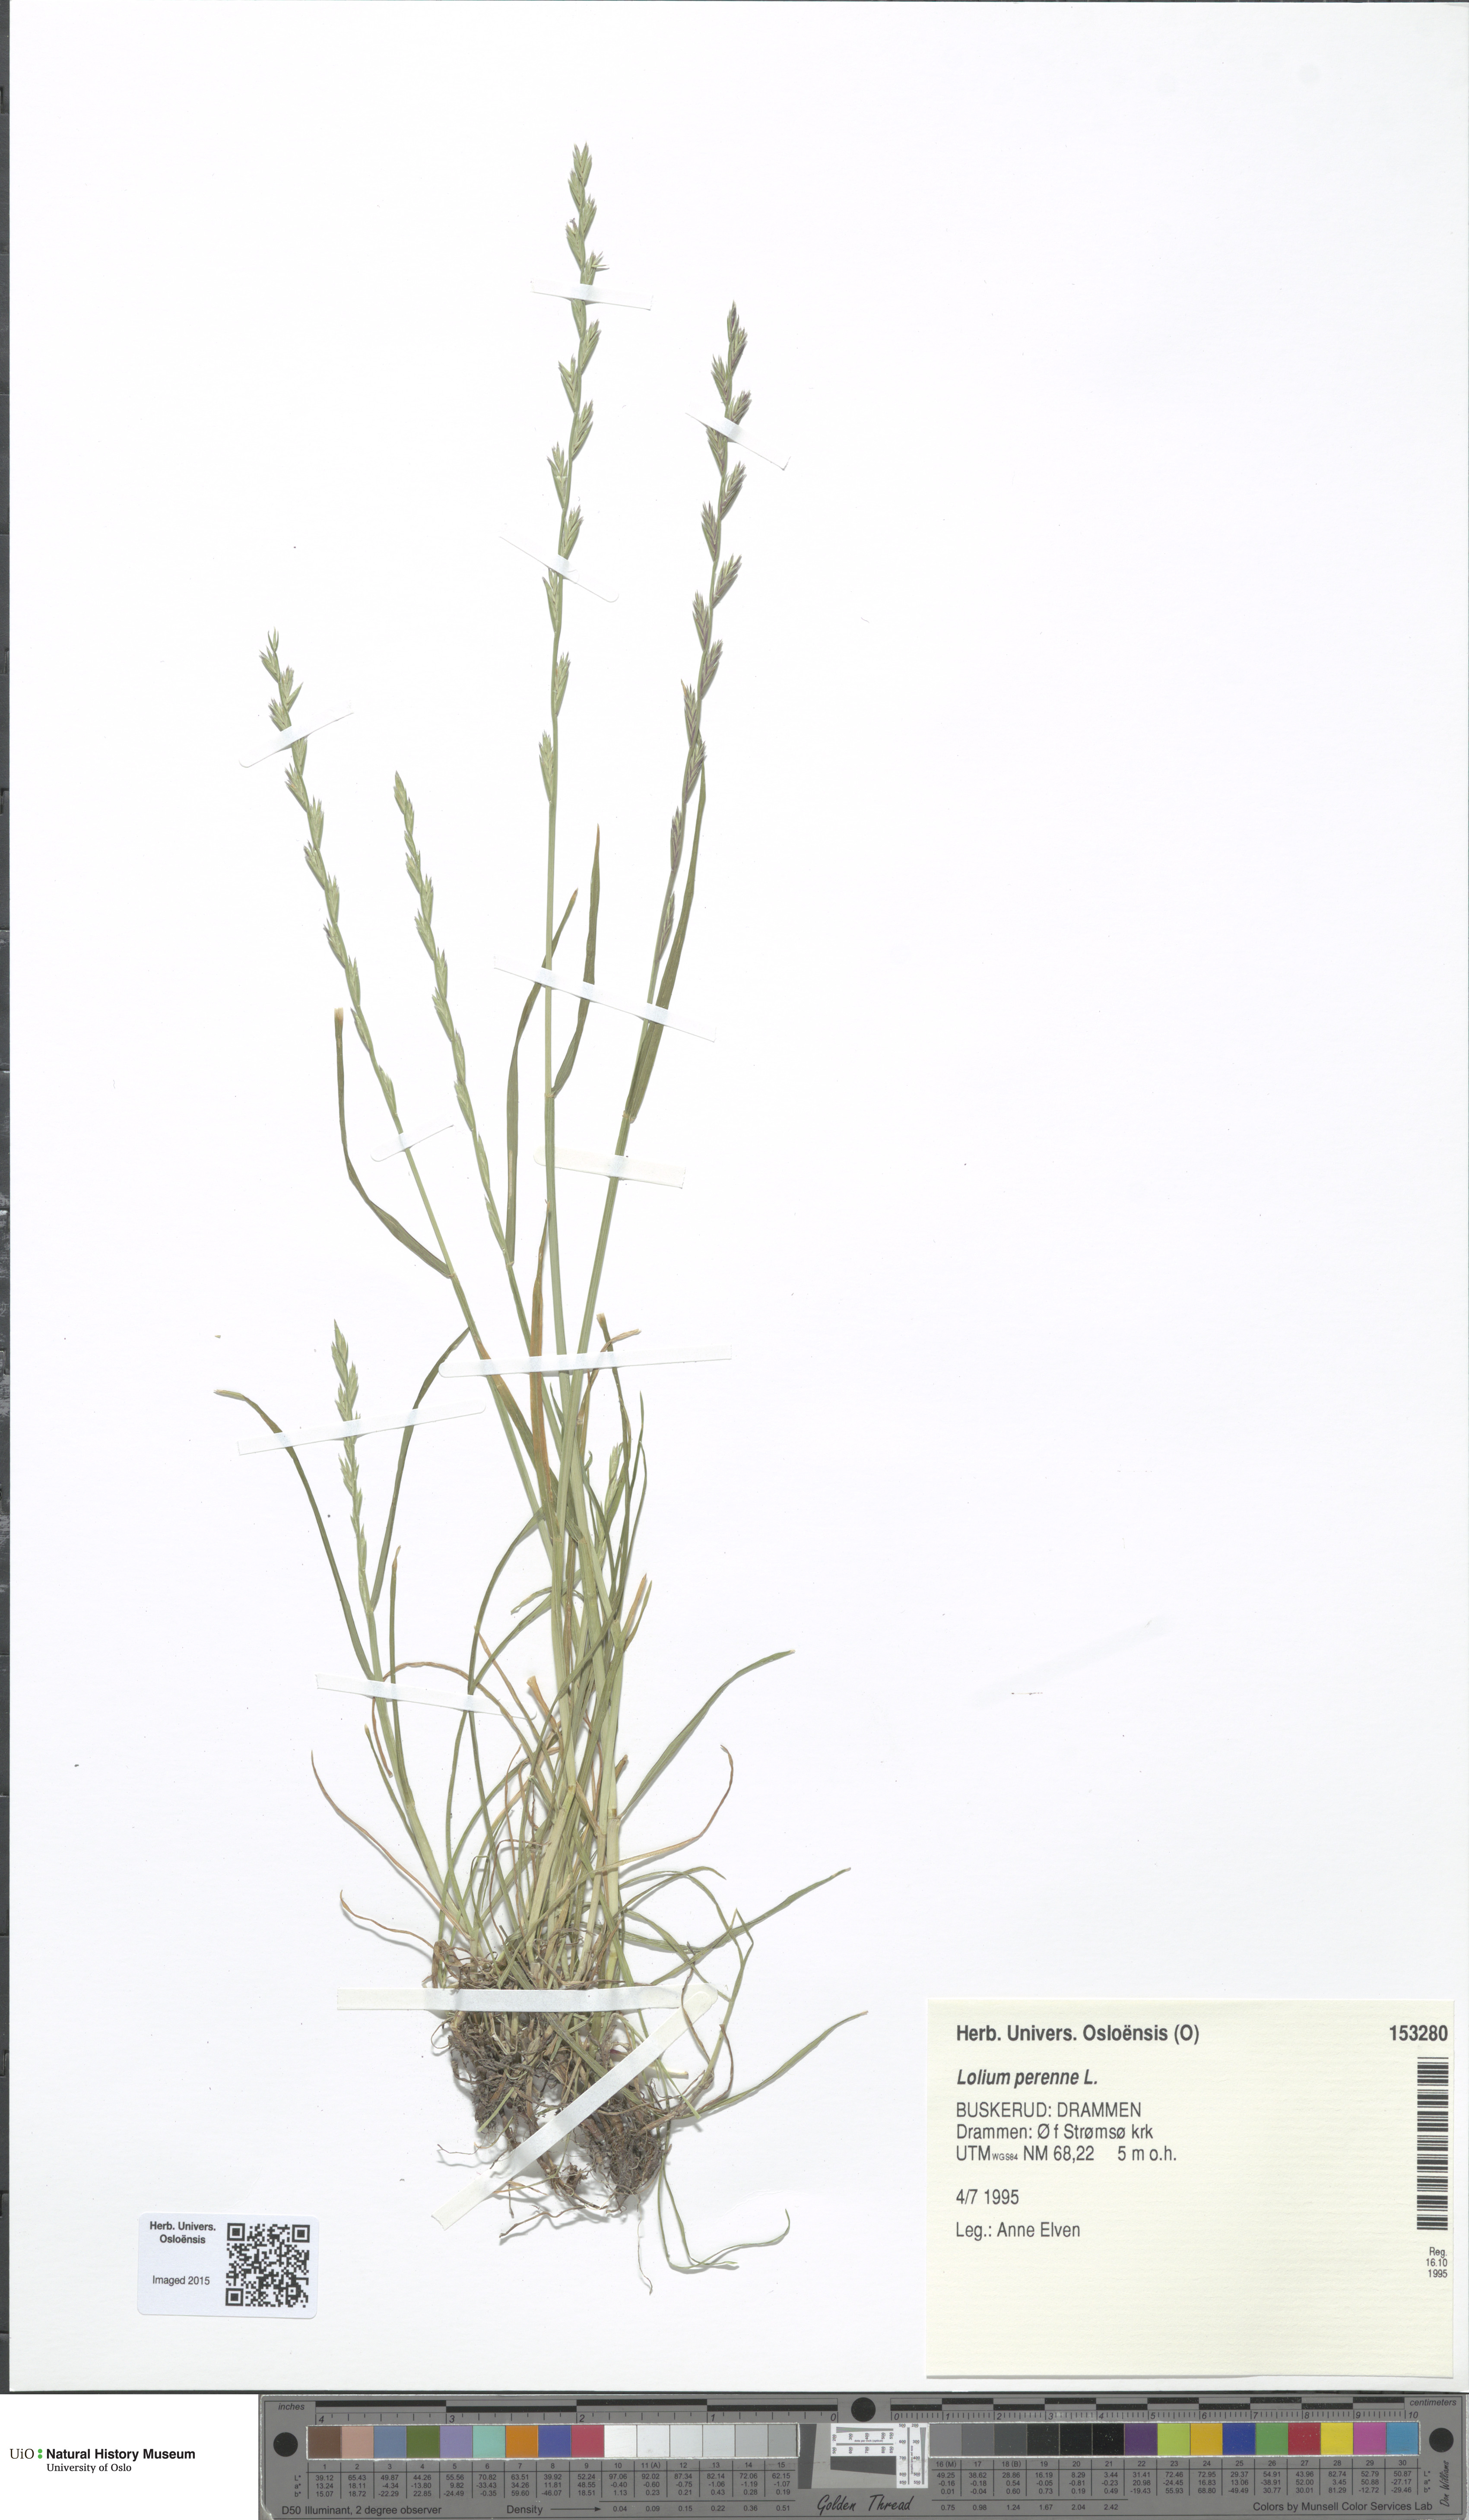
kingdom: Plantae
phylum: Tracheophyta
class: Liliopsida
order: Poales
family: Poaceae
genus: Lolium
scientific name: Lolium perenne
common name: Perennial ryegrass
